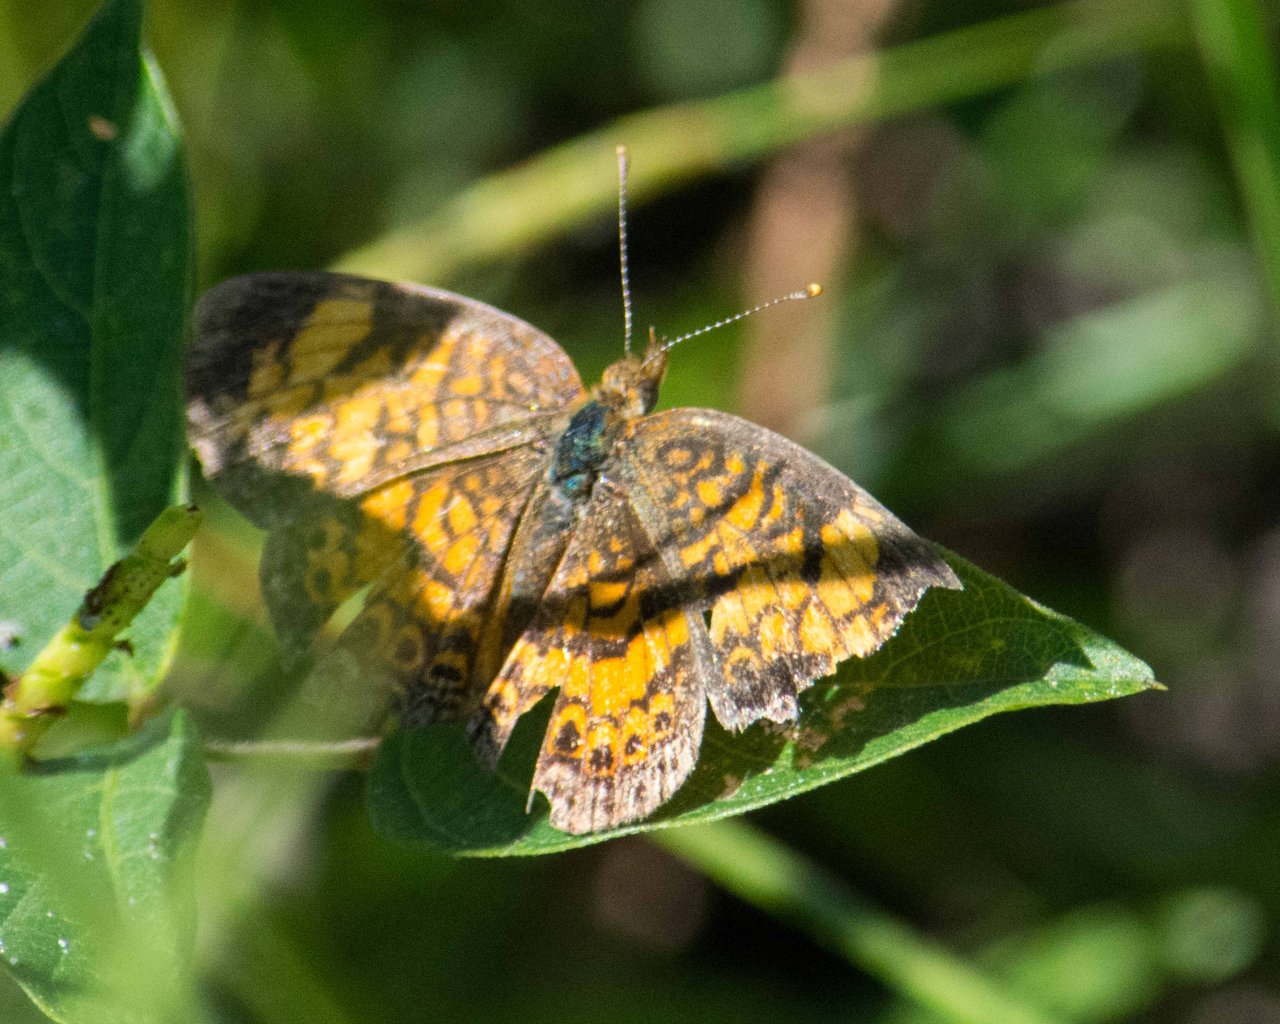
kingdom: Animalia
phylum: Arthropoda
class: Insecta
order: Lepidoptera
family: Nymphalidae
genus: Phyciodes
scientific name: Phyciodes tharos
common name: Pearl Crescent
